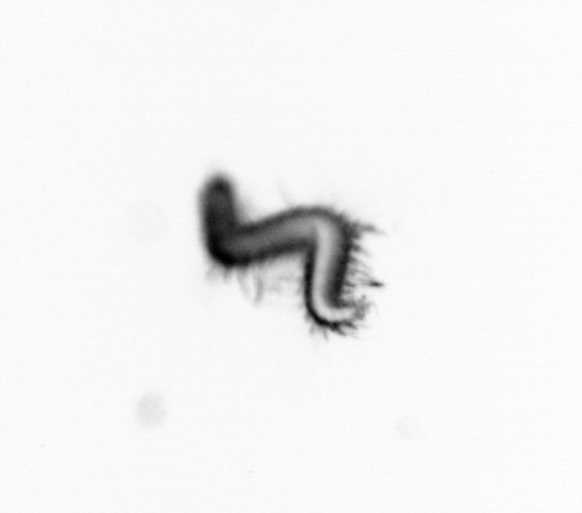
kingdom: Animalia
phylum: Annelida
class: Polychaeta
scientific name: Polychaeta
